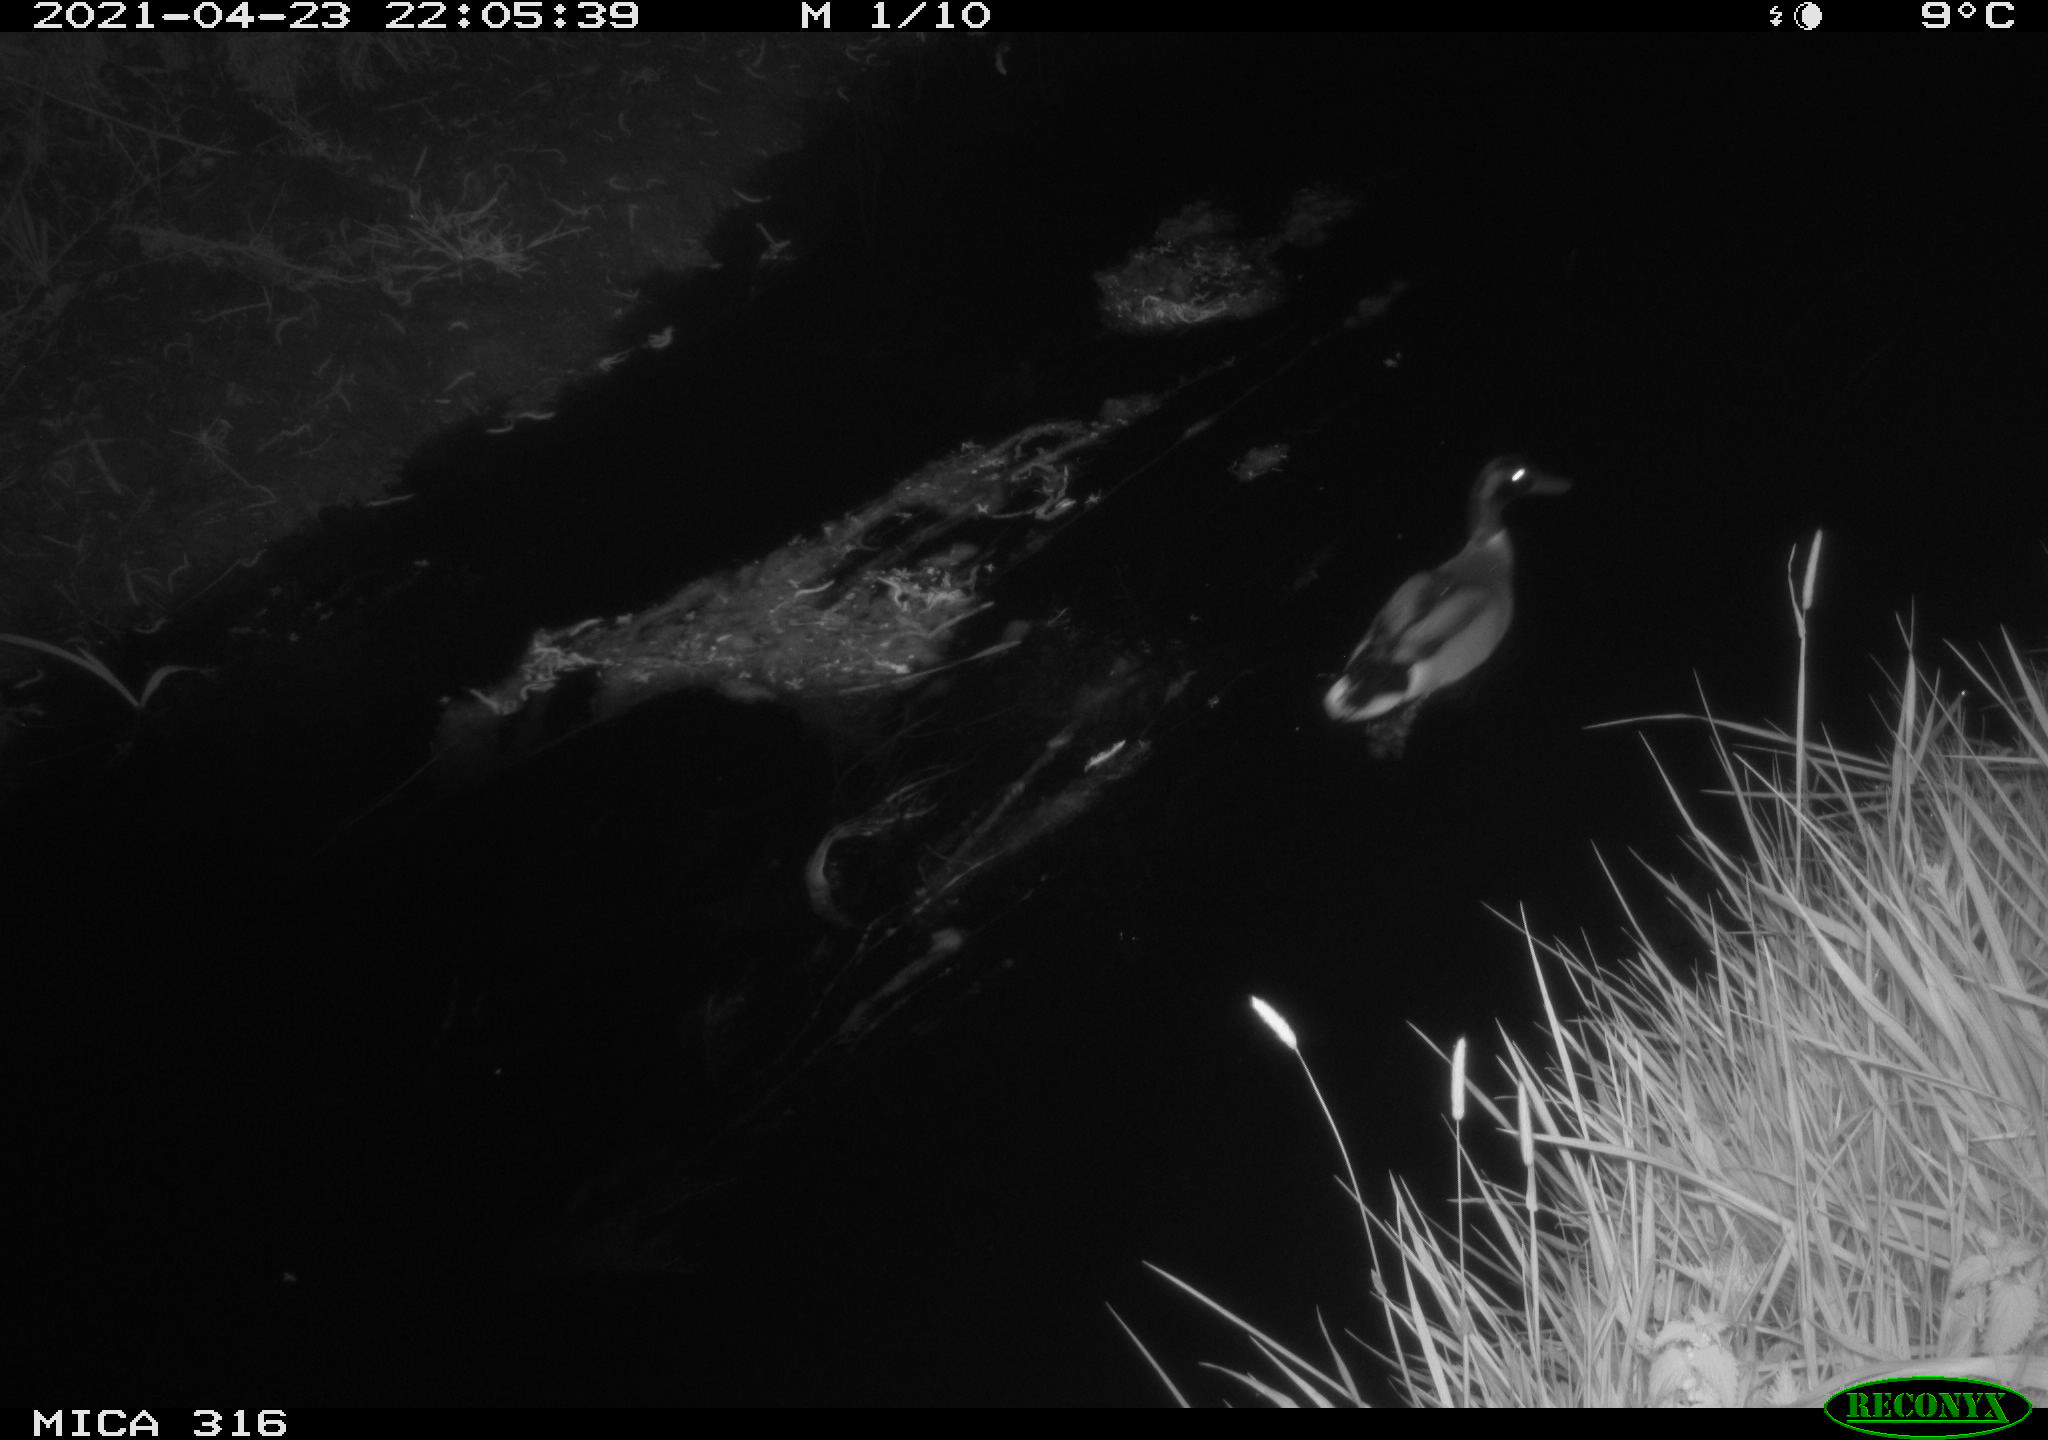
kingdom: Animalia
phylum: Chordata
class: Aves
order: Anseriformes
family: Anatidae
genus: Anas
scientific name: Anas platyrhynchos
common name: Mallard
